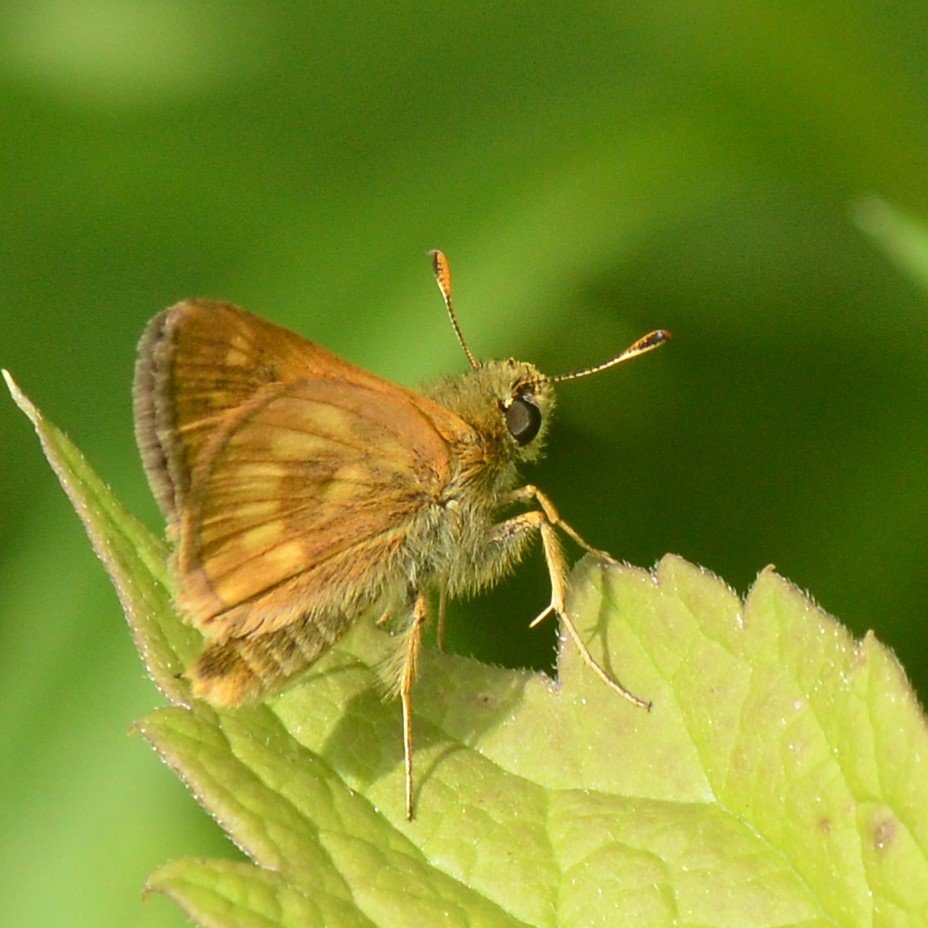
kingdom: Animalia
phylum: Arthropoda
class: Insecta
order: Lepidoptera
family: Hesperiidae
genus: Polites
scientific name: Polites
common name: Long Dash Skipper
